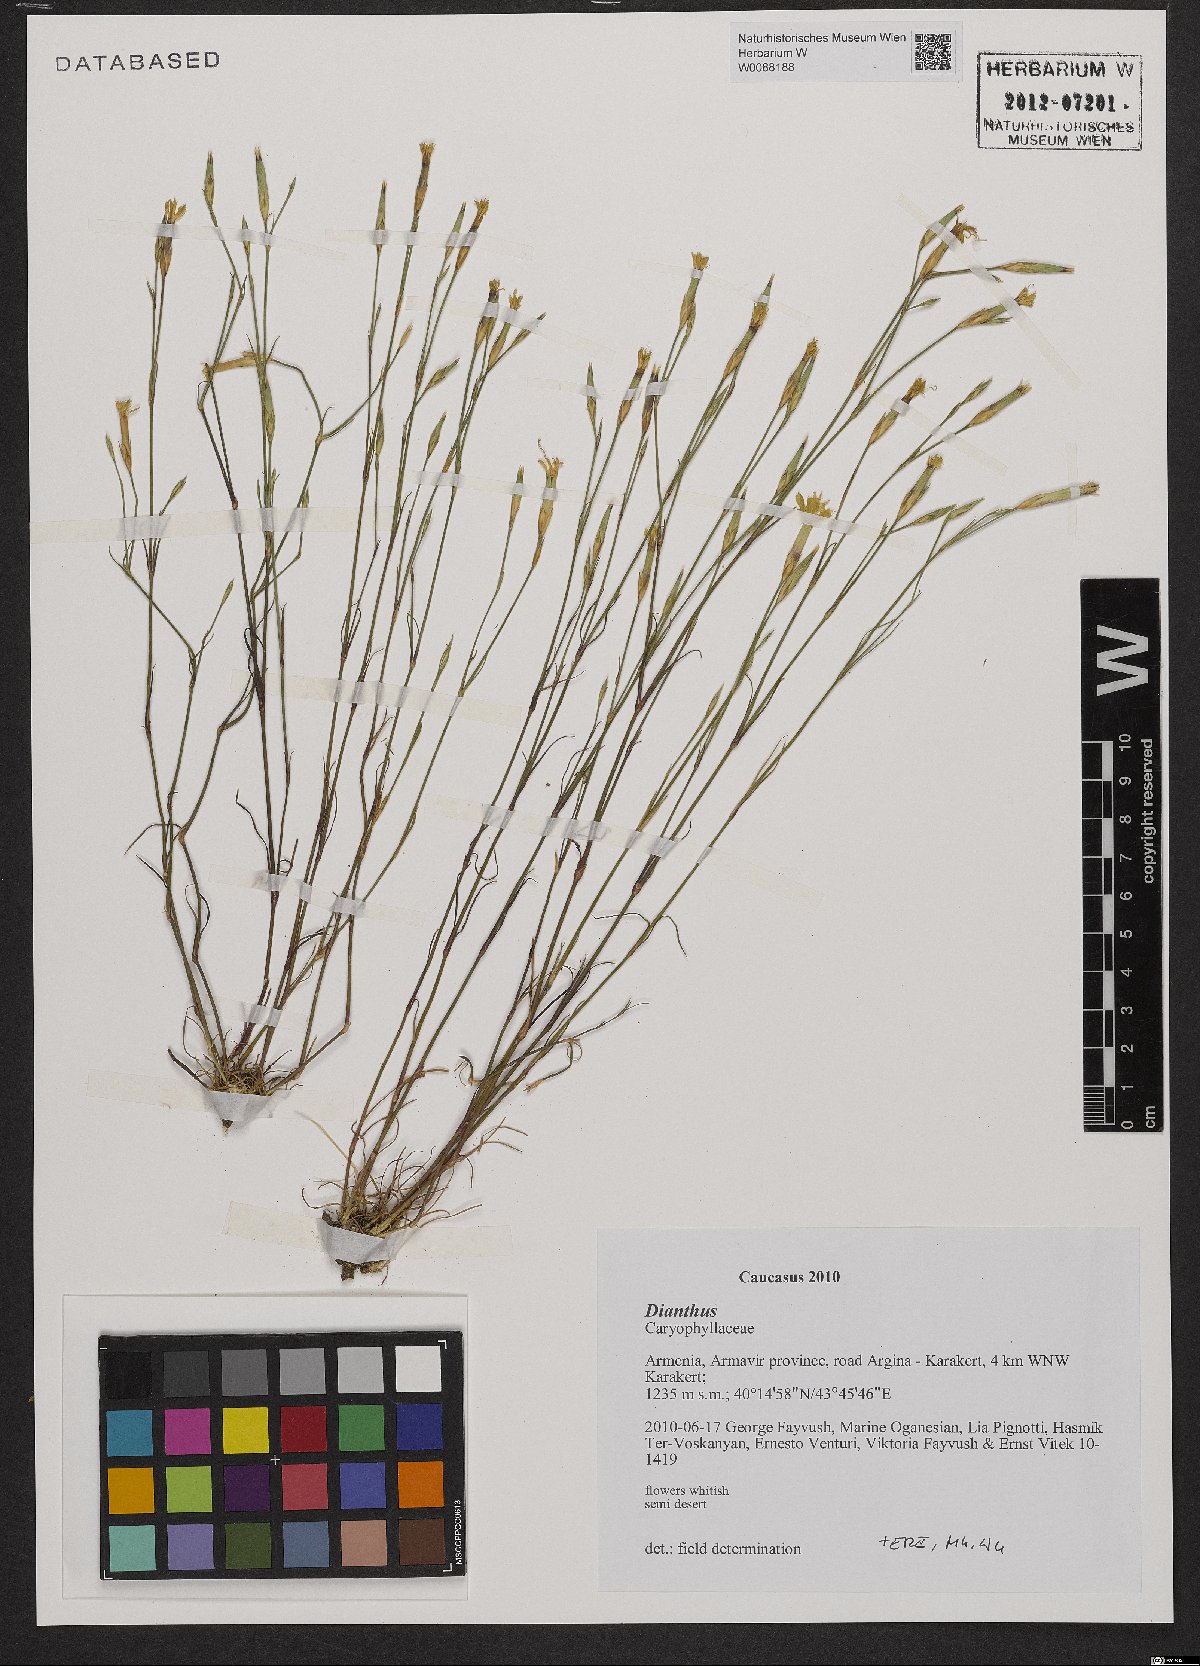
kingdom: Plantae
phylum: Tracheophyta
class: Magnoliopsida
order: Caryophyllales
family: Caryophyllaceae
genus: Dianthus
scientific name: Dianthus
